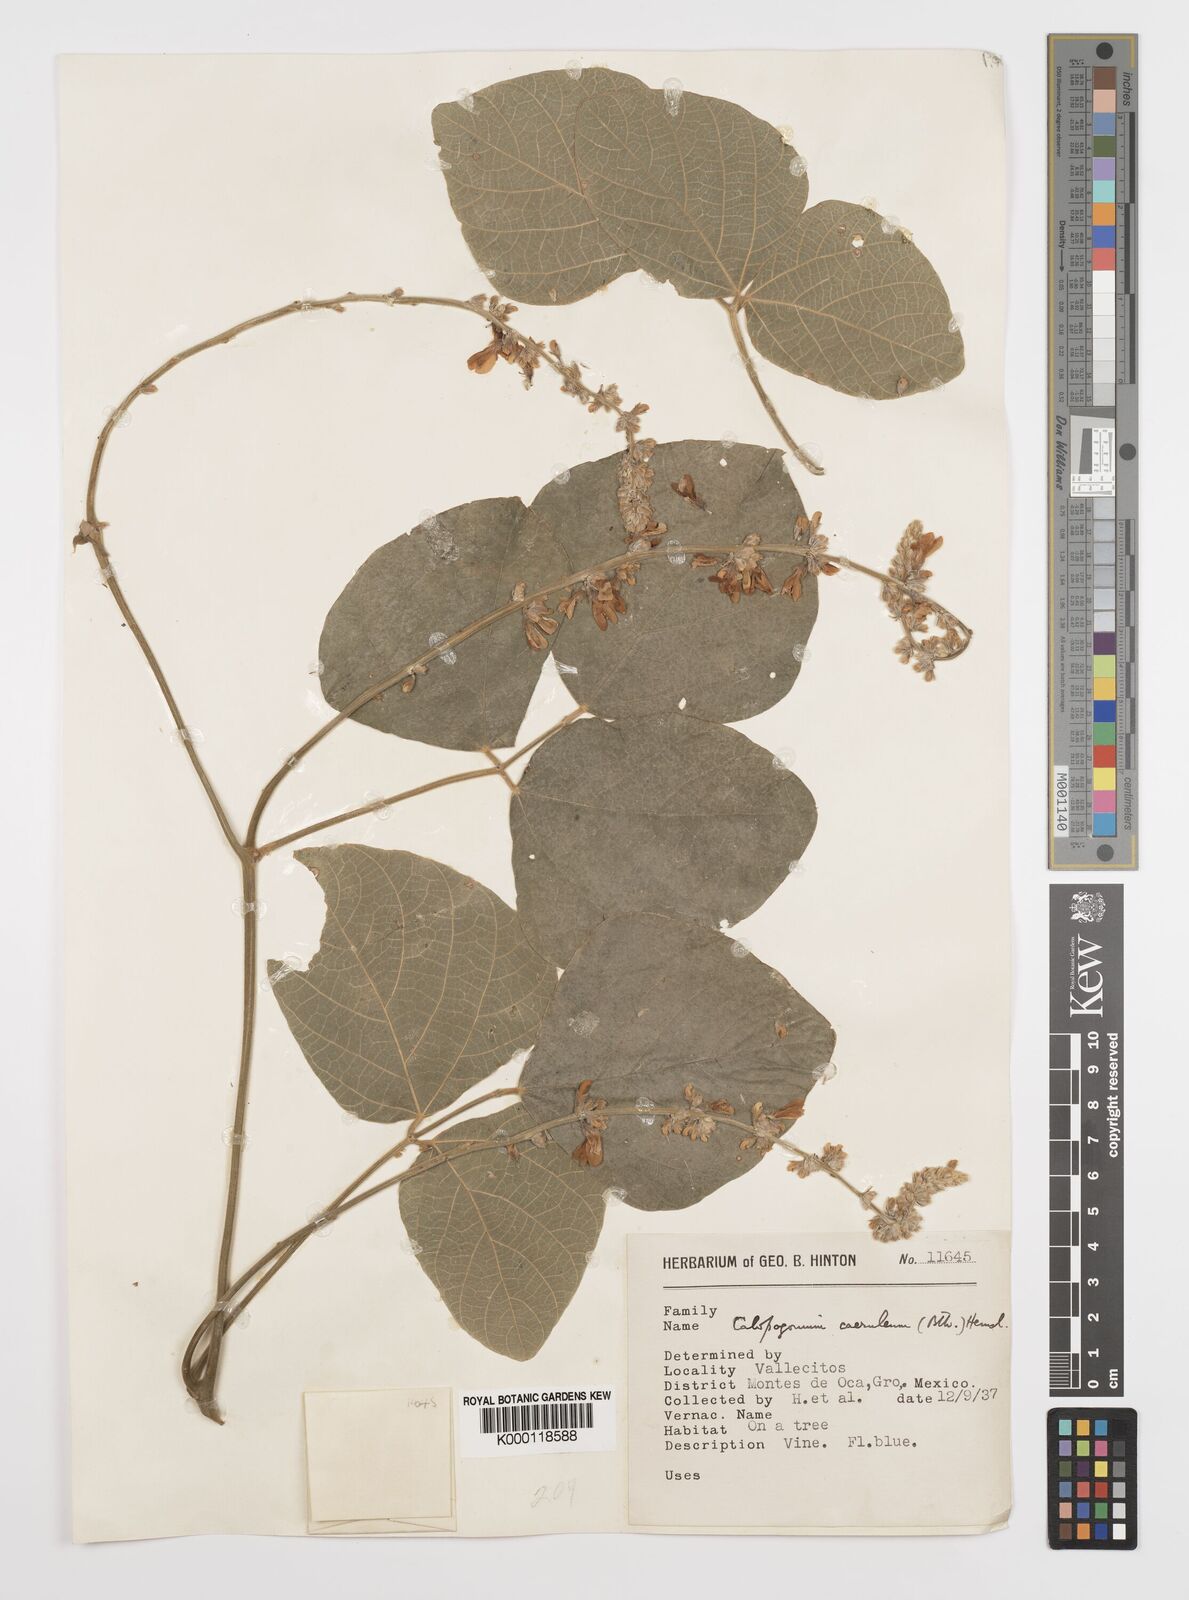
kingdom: Plantae
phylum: Tracheophyta
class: Magnoliopsida
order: Fabales
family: Fabaceae
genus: Calopogonium
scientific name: Calopogonium
